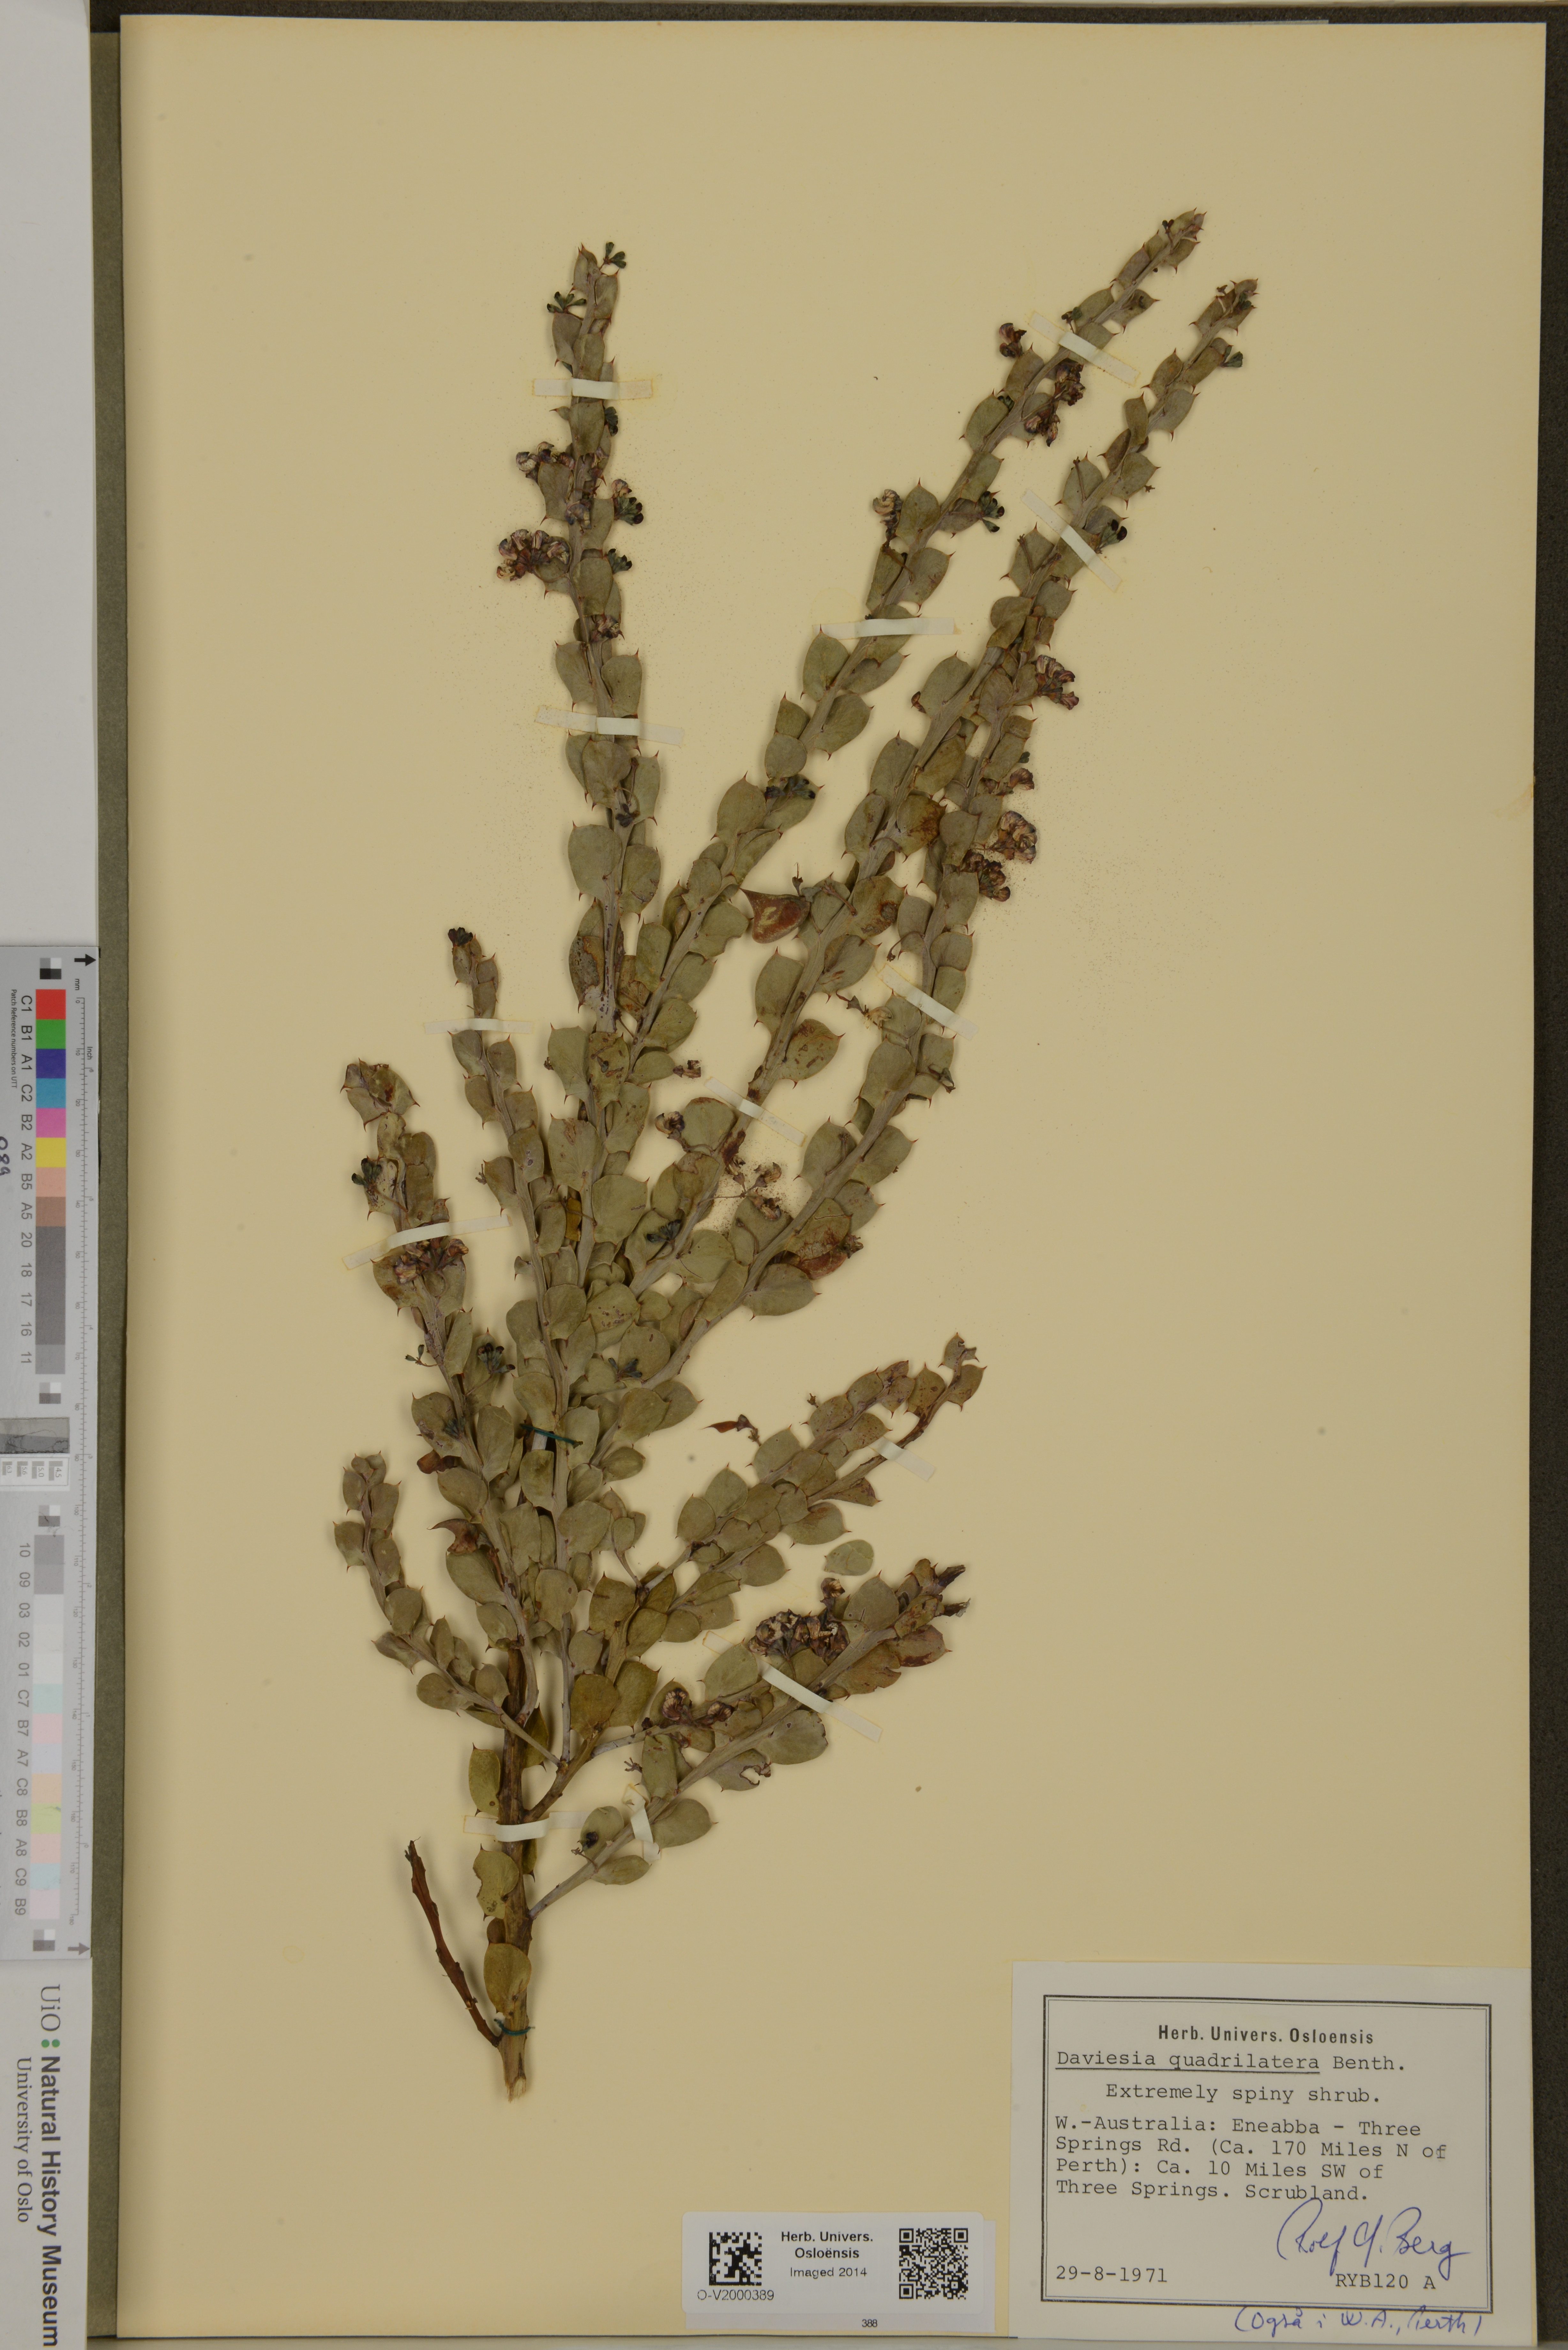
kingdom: Plantae
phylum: Tracheophyta
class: Magnoliopsida
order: Fabales
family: Fabaceae
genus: Daviesia
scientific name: Daviesia quadrilatera
